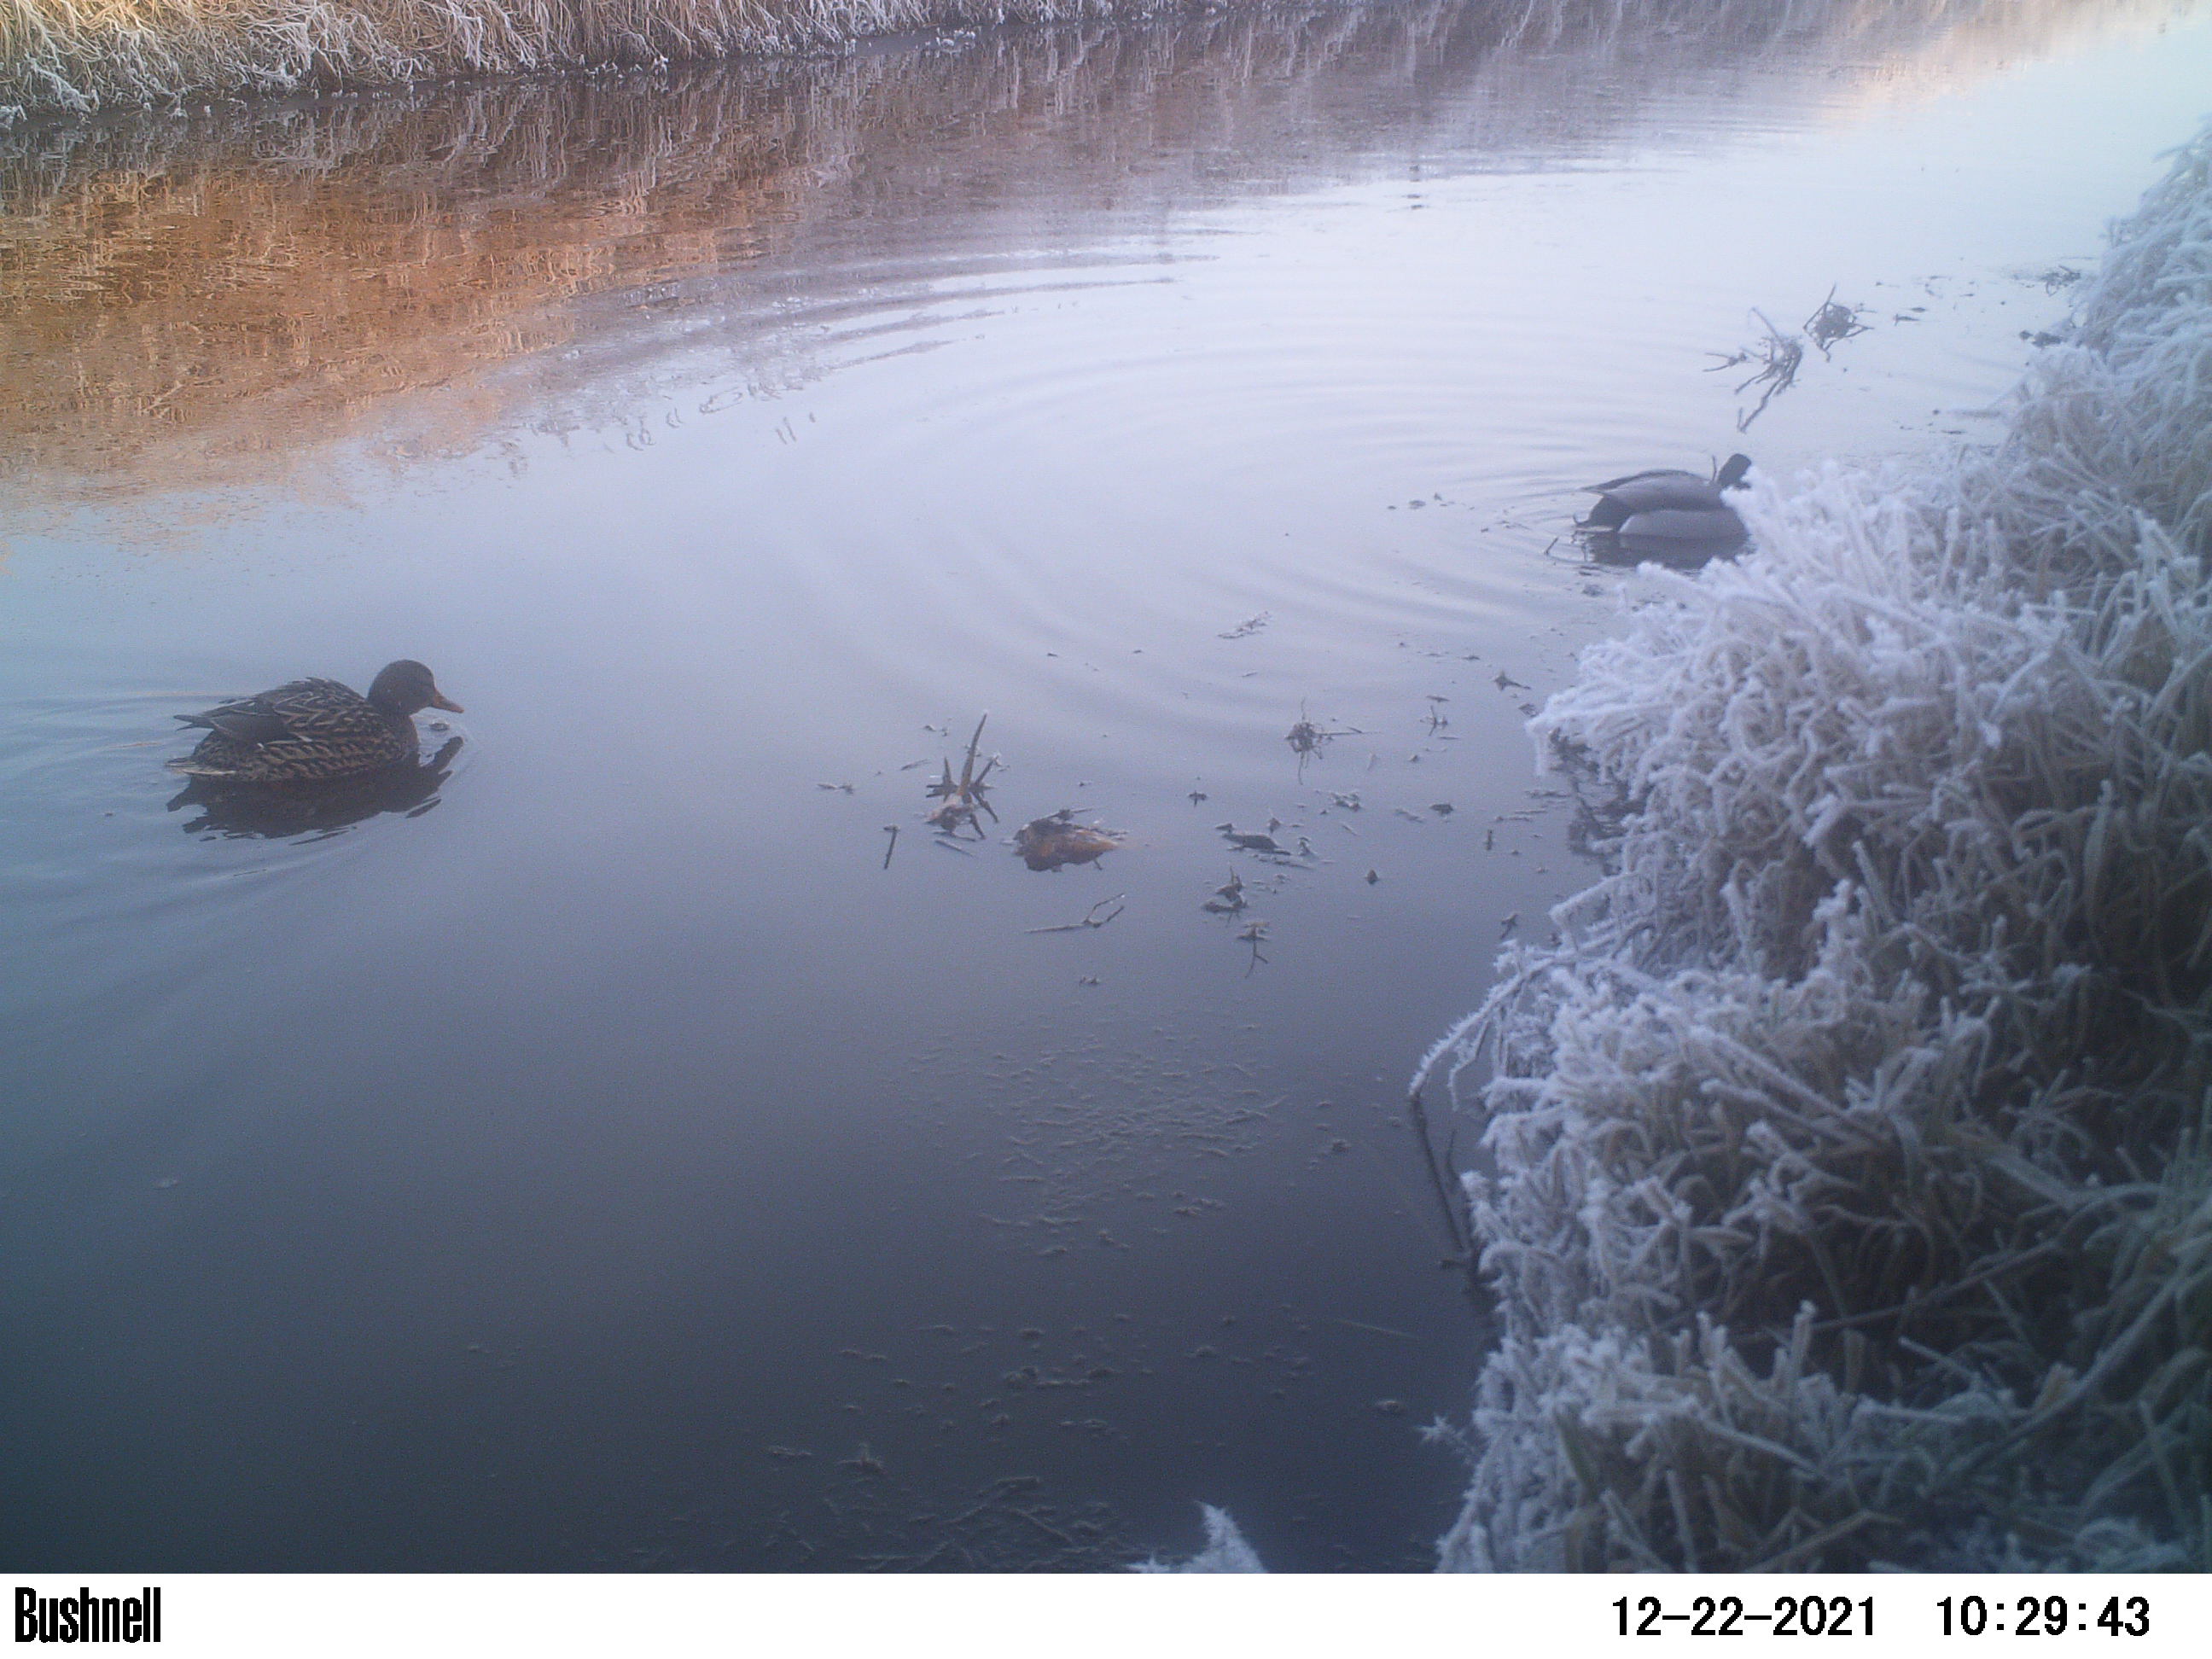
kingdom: Animalia
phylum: Chordata
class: Aves
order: Anseriformes
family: Anatidae
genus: Anas
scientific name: Anas
